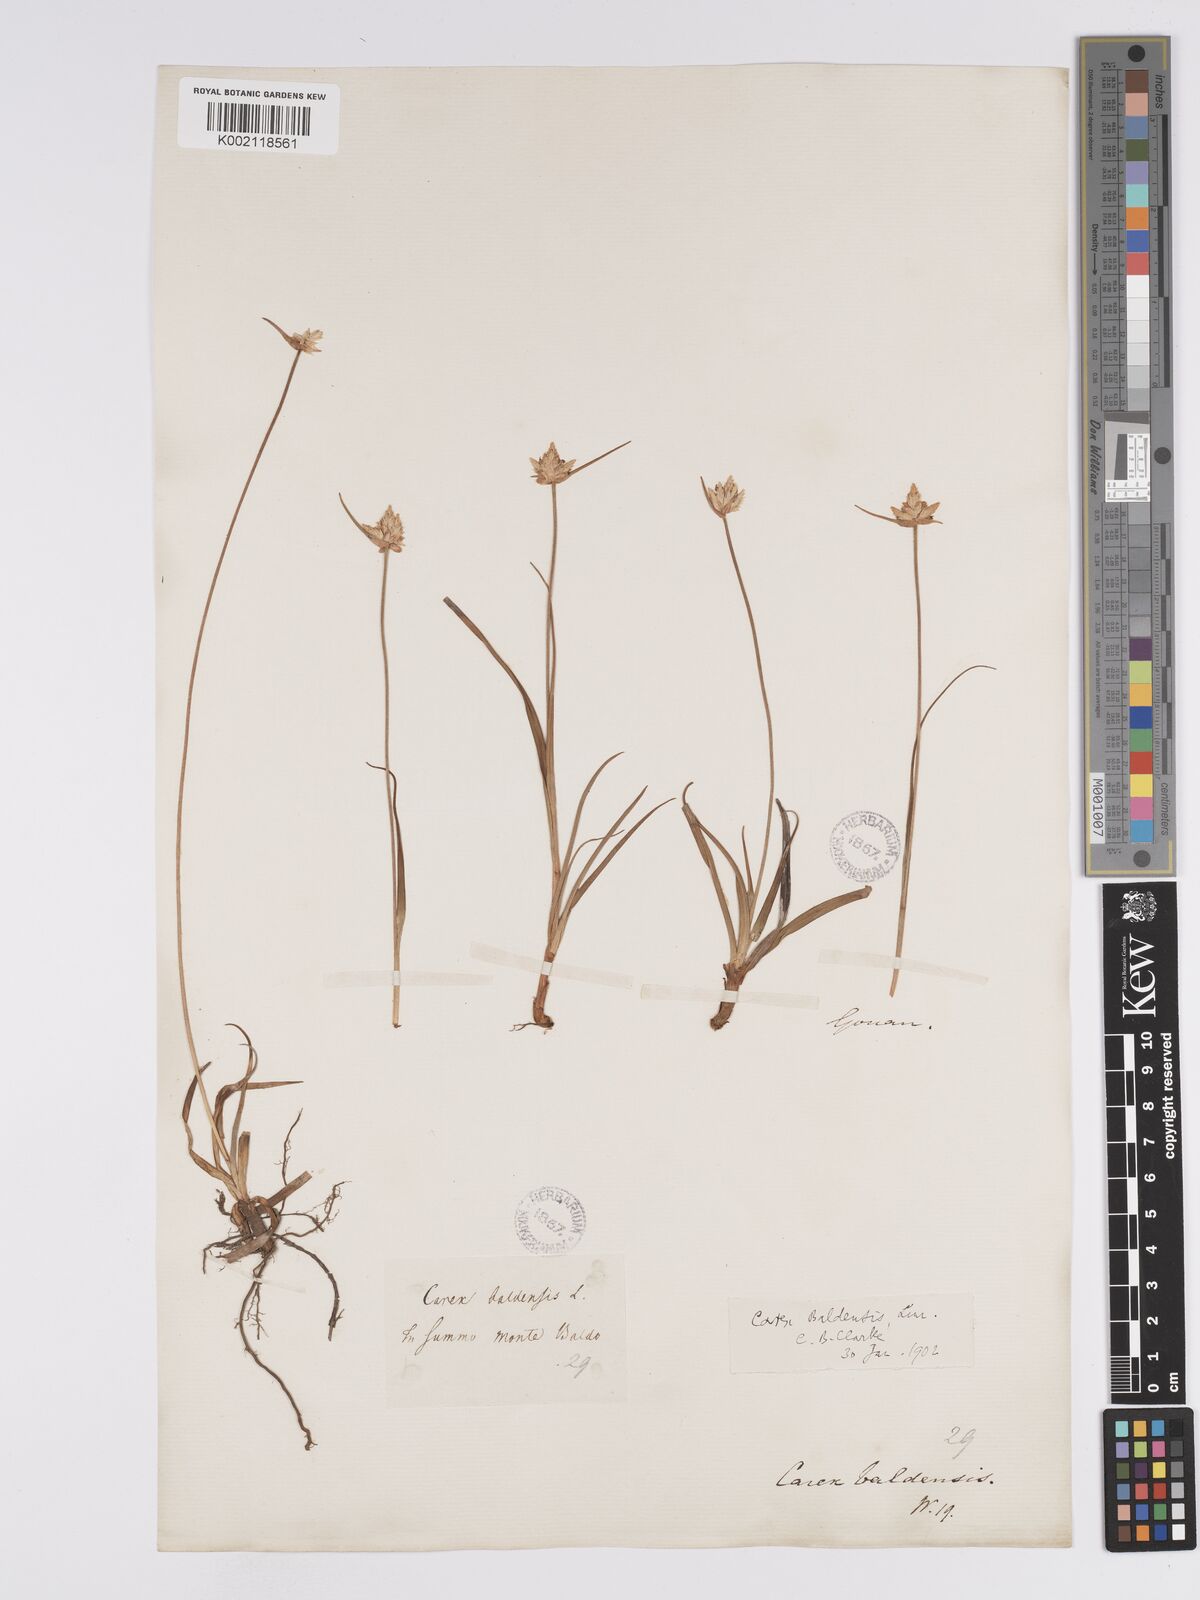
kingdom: Plantae
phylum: Tracheophyta
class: Liliopsida
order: Poales
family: Cyperaceae
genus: Carex
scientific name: Carex baldensis
